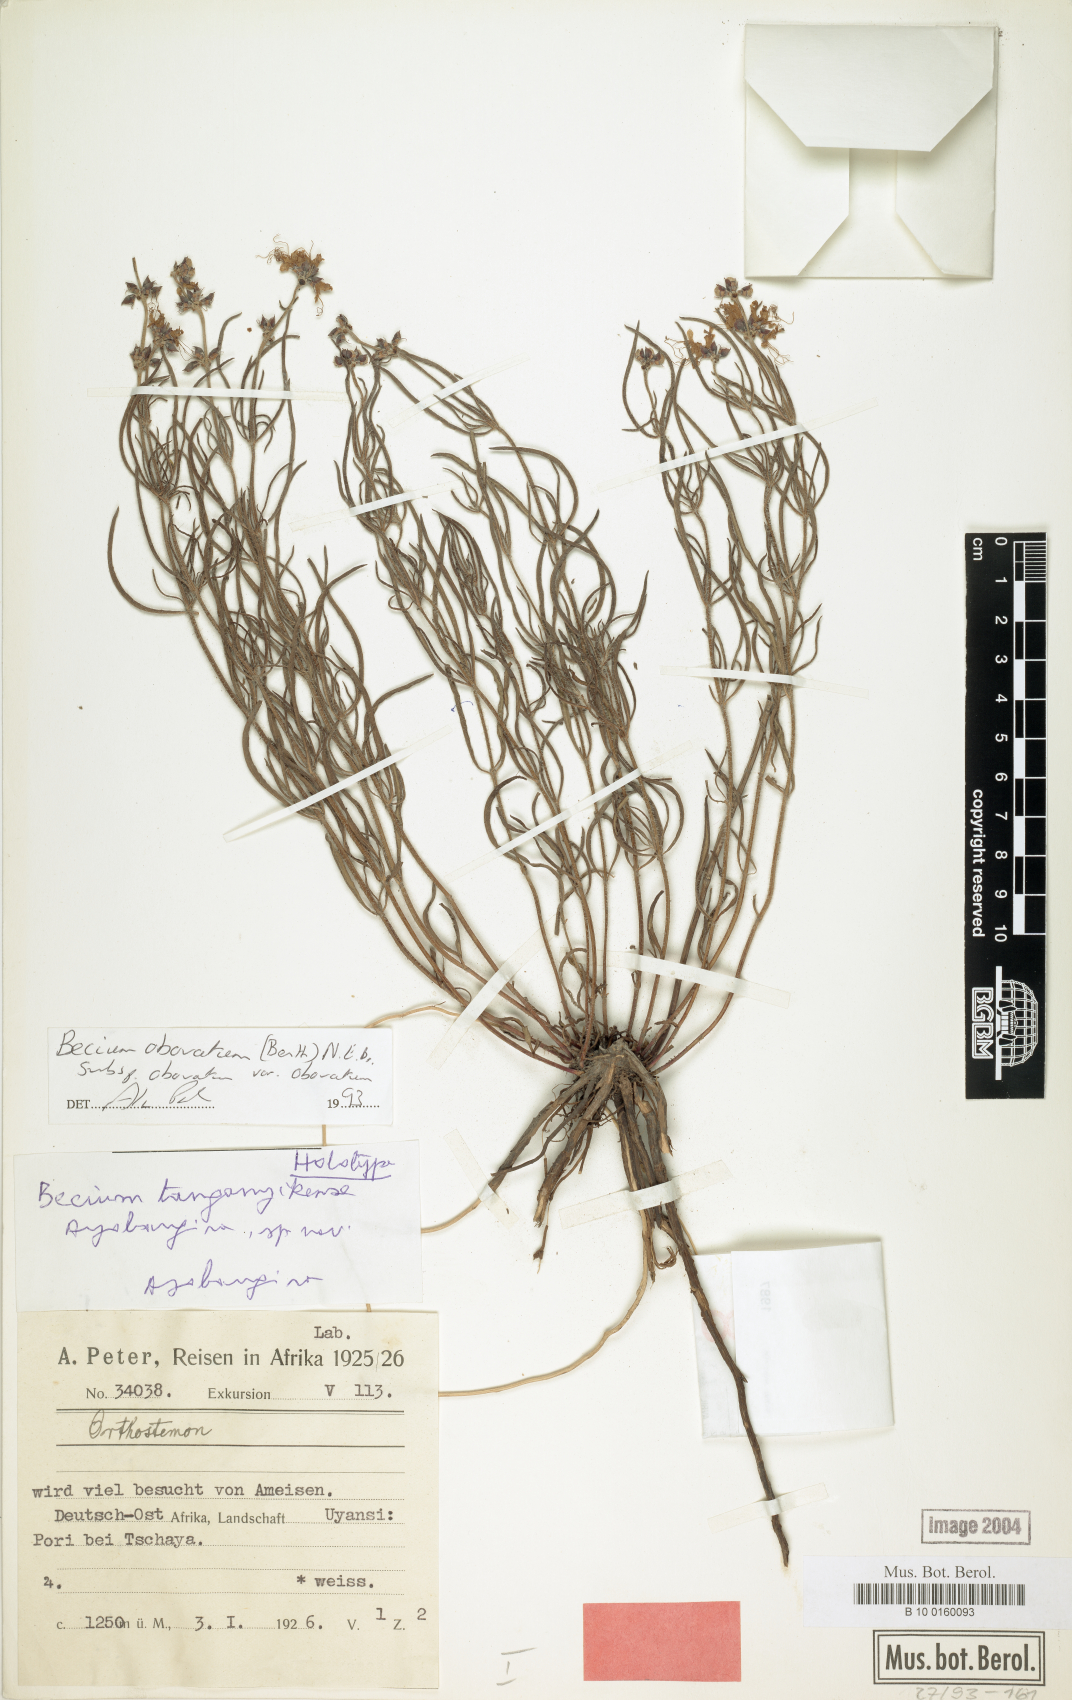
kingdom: Plantae
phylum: Tracheophyta
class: Magnoliopsida
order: Lamiales
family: Lamiaceae
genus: Ocimum
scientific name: Ocimum obovatum
